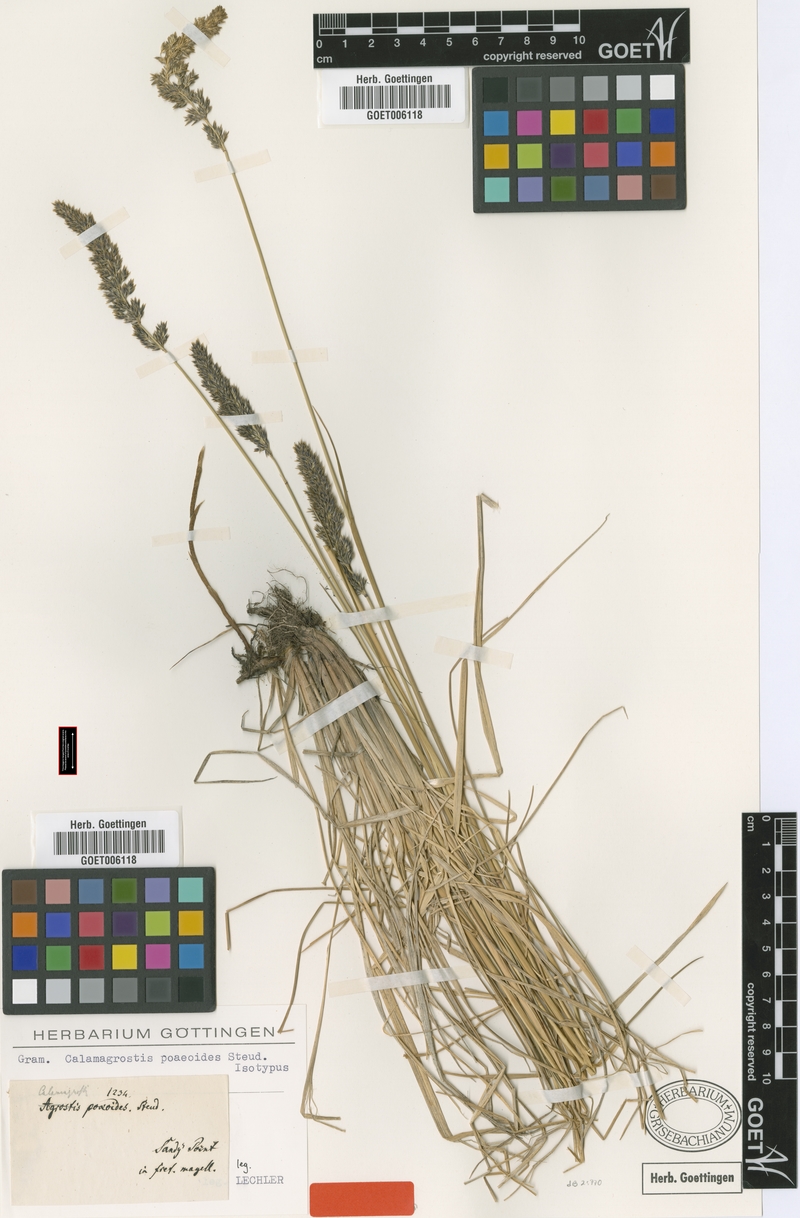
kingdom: Plantae
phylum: Tracheophyta
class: Liliopsida
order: Poales
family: Poaceae
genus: Calamagrostis
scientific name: Calamagrostis stricta
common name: Narrow small-reed
